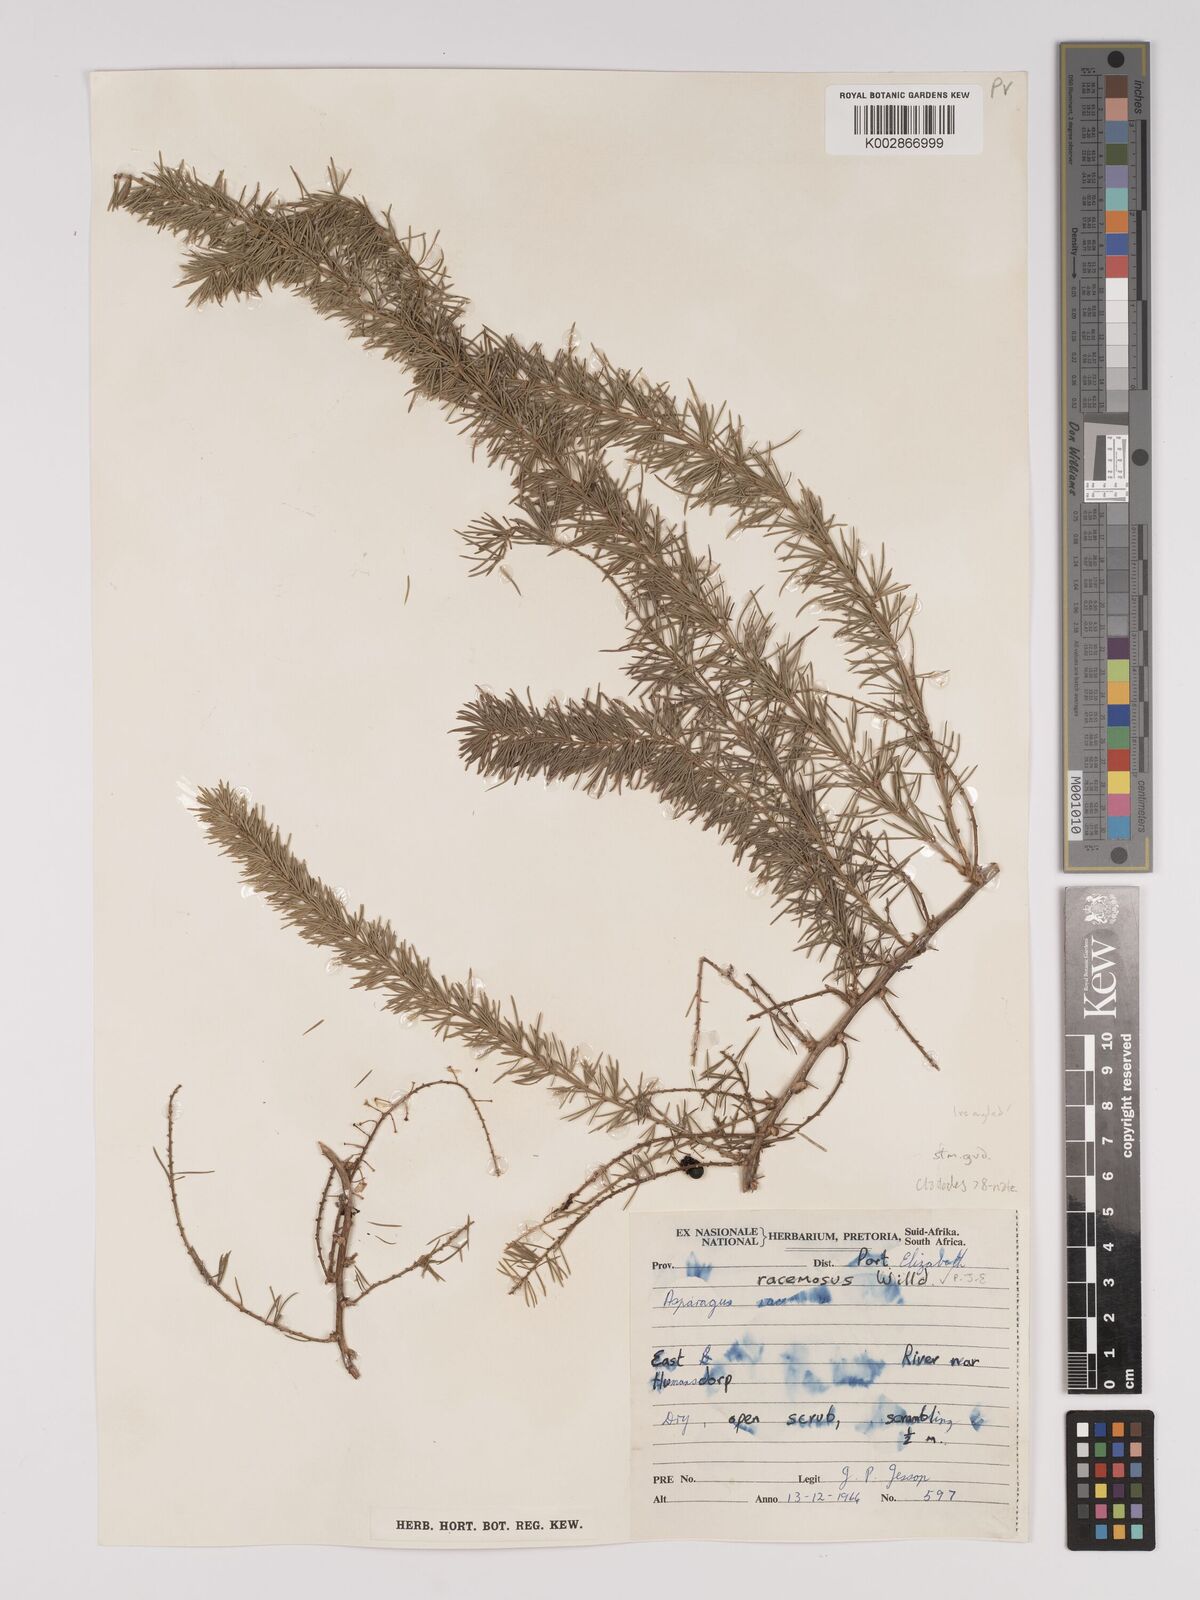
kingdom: Plantae
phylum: Tracheophyta
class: Liliopsida
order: Asparagales
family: Asparagaceae
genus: Asparagus
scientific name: Asparagus racemosus
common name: Asparagus-fern
